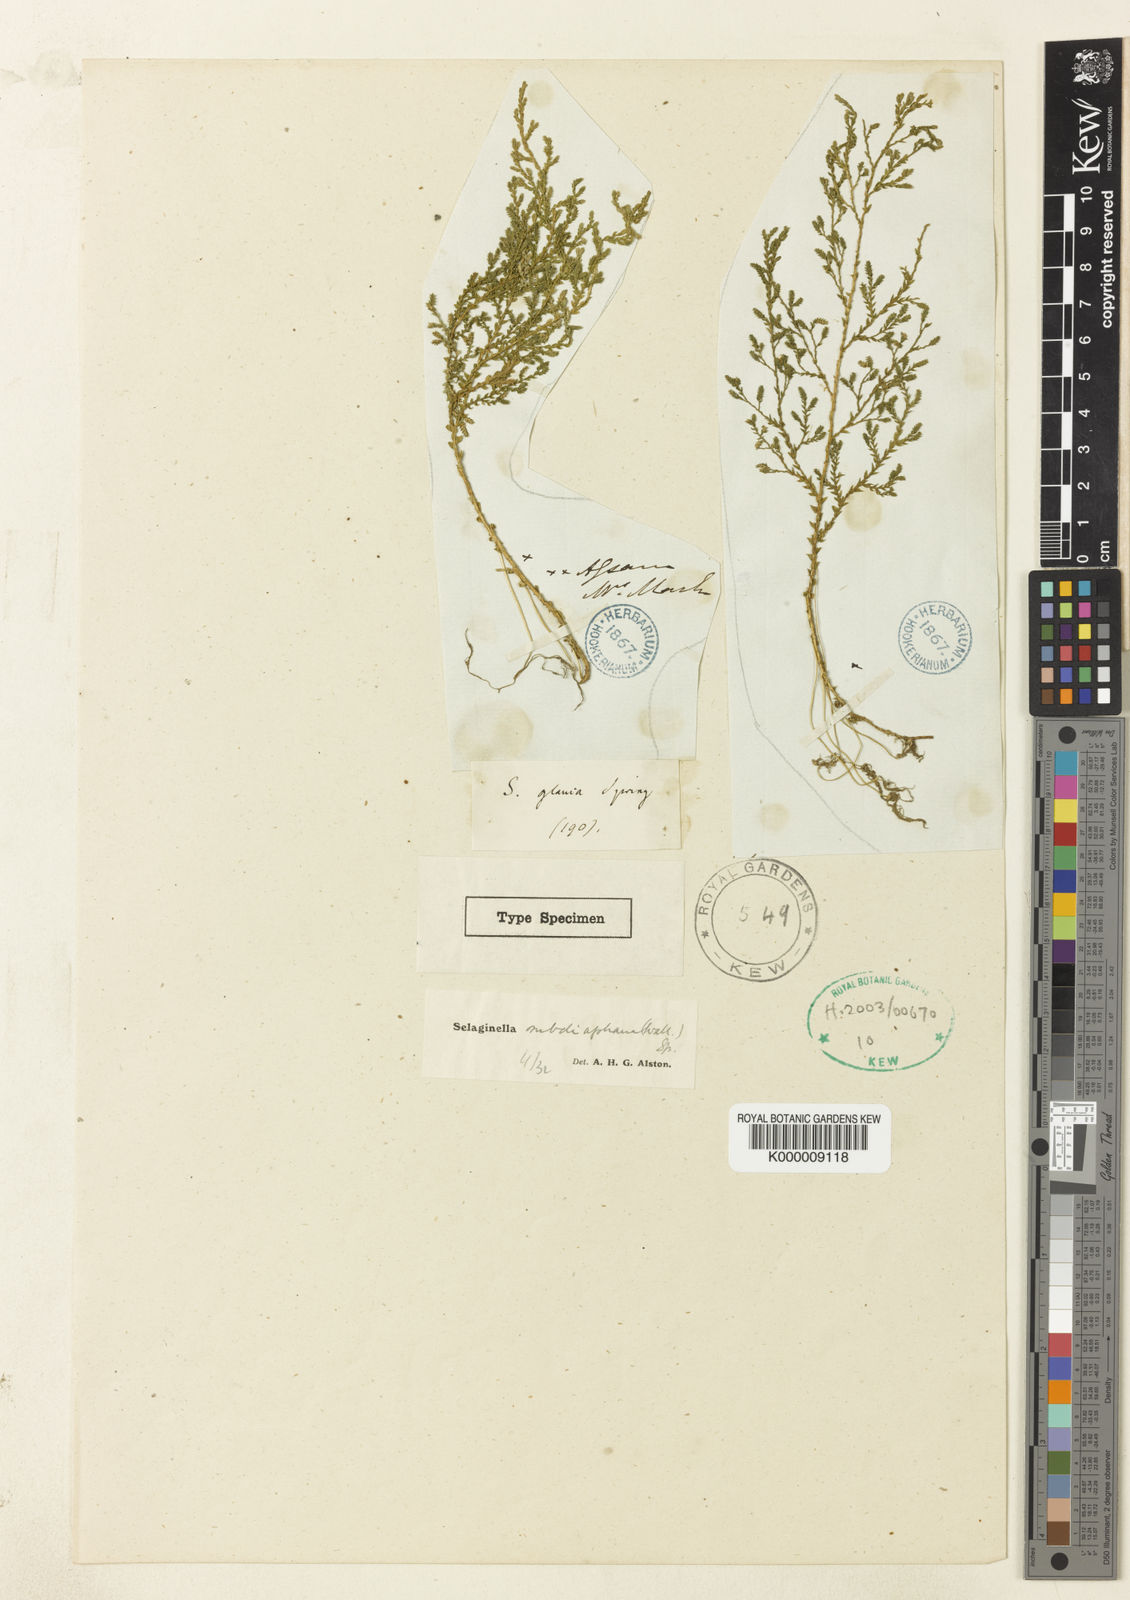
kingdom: Plantae
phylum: Tracheophyta
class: Lycopodiopsida
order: Selaginellales
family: Selaginellaceae
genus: Selaginella
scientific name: Selaginella subdiaphana
